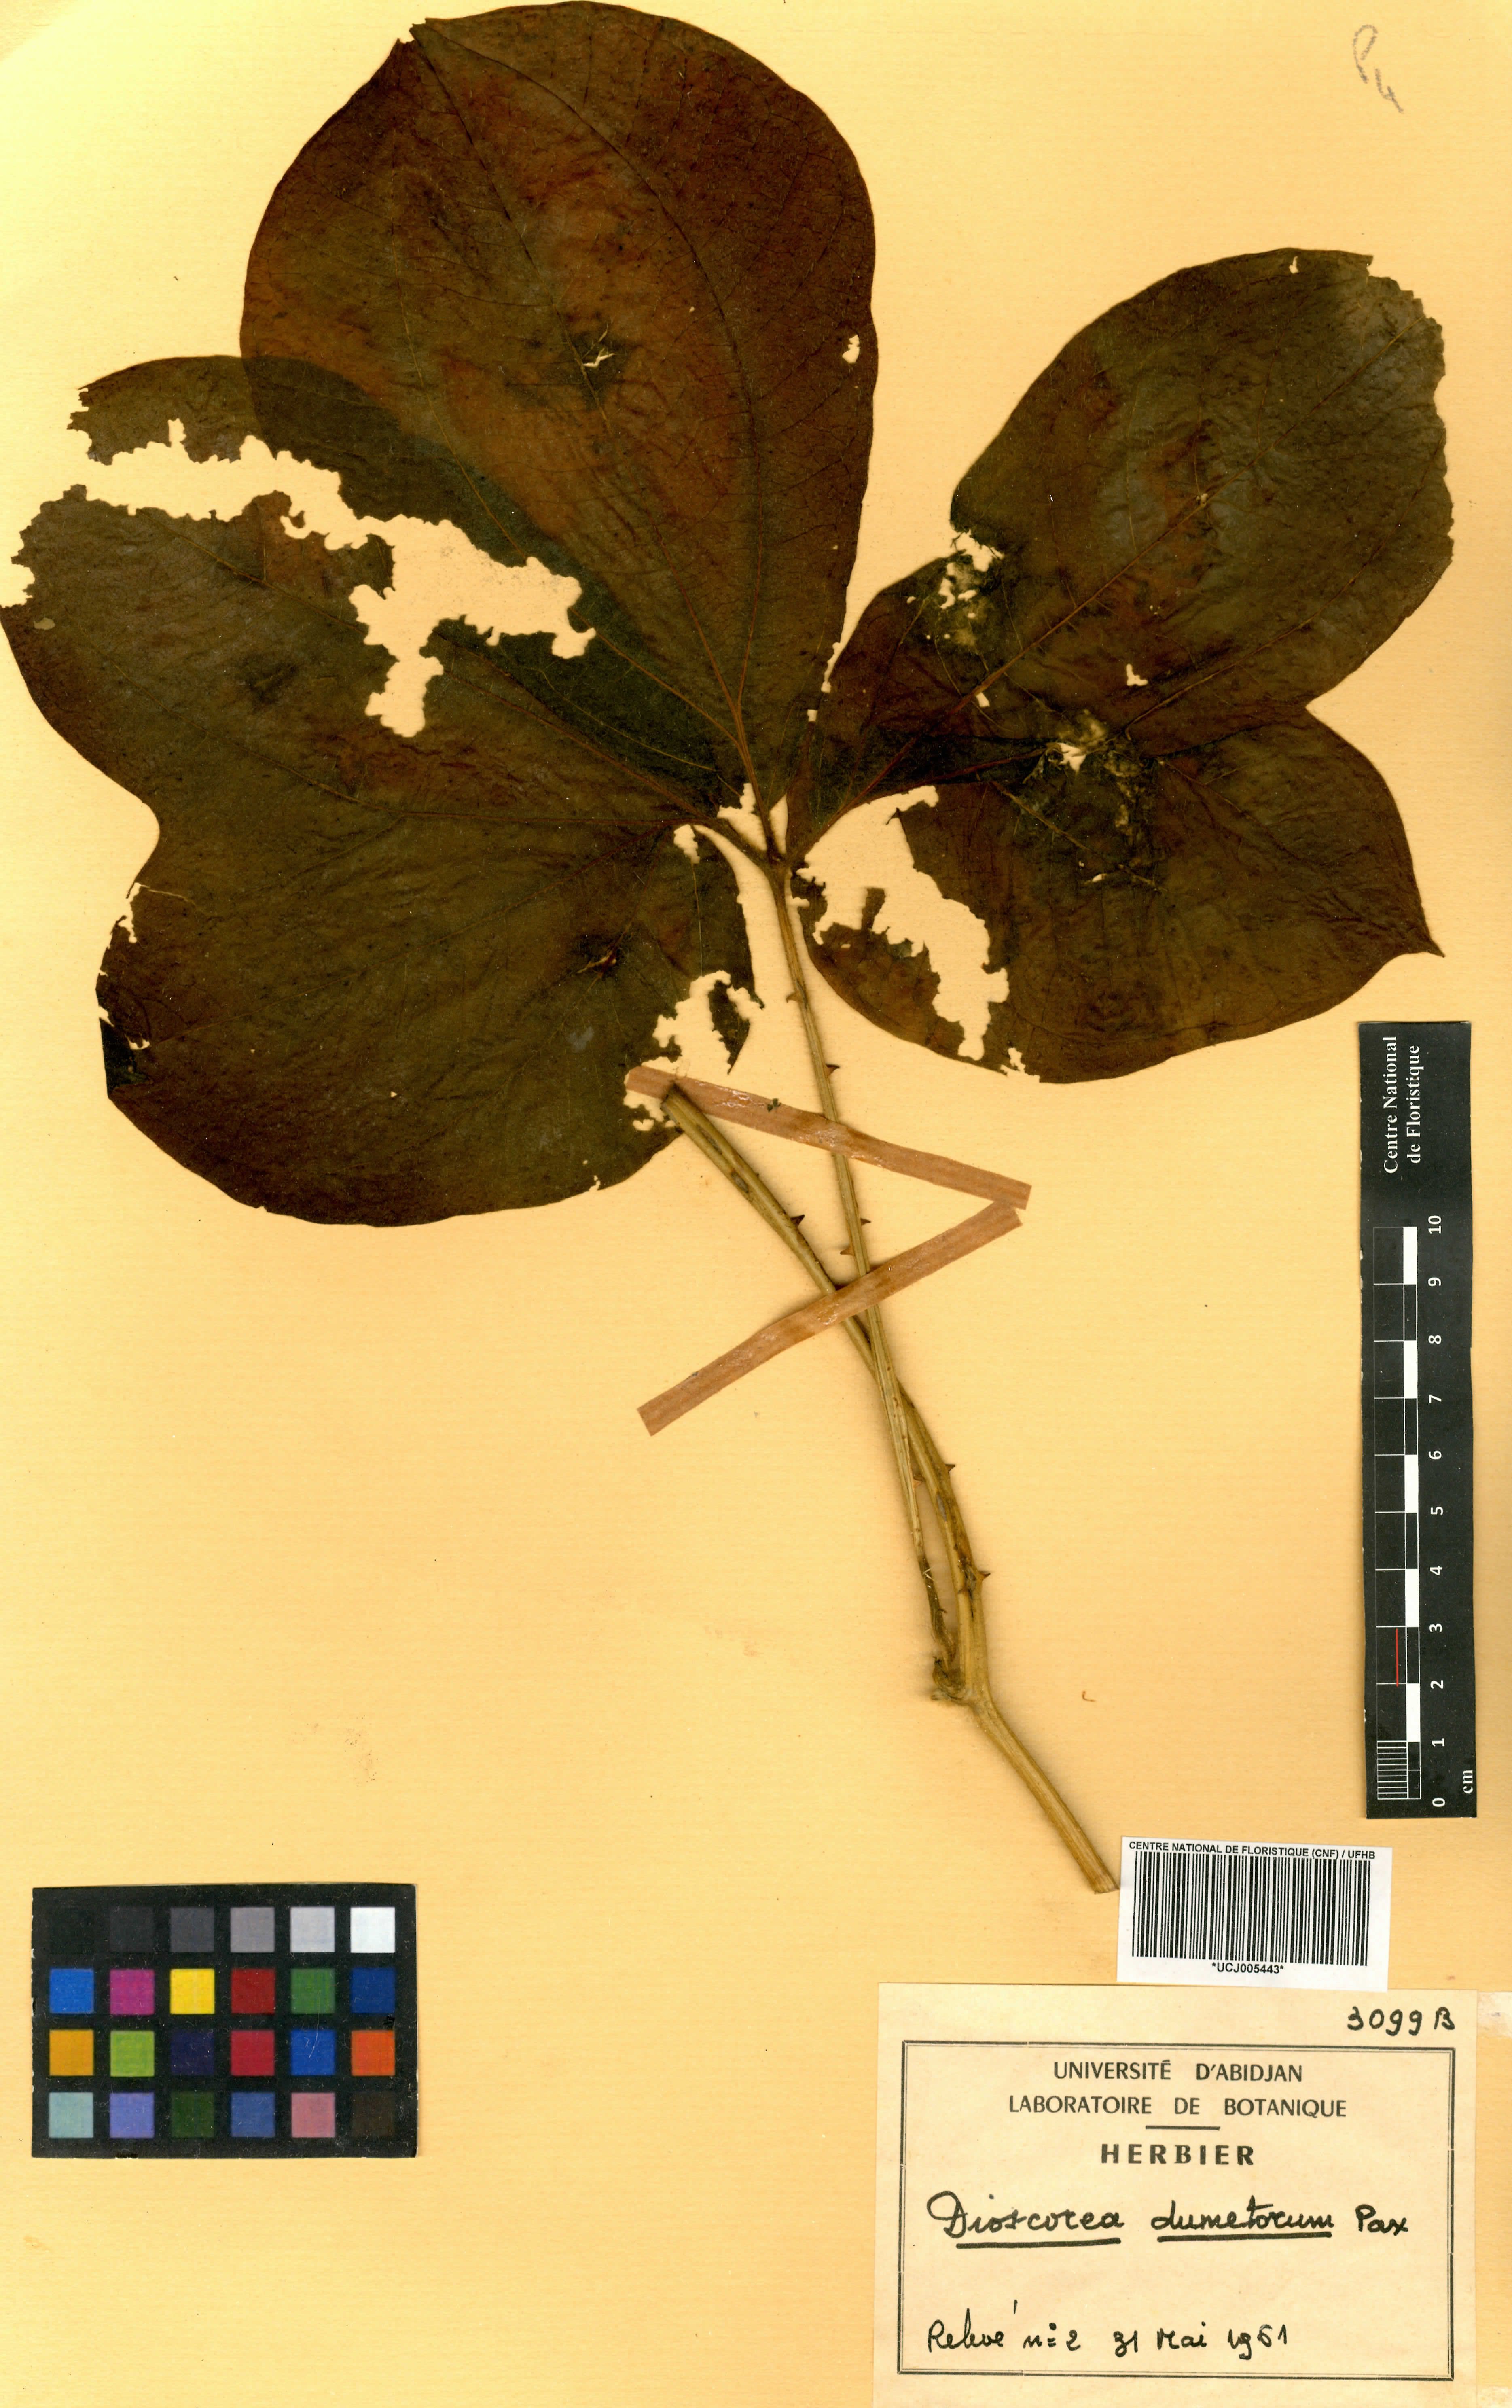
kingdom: Plantae
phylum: Tracheophyta
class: Liliopsida
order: Dioscoreales
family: Dioscoreaceae
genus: Dioscorea
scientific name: Dioscorea dumetorum
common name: African bitter yam
